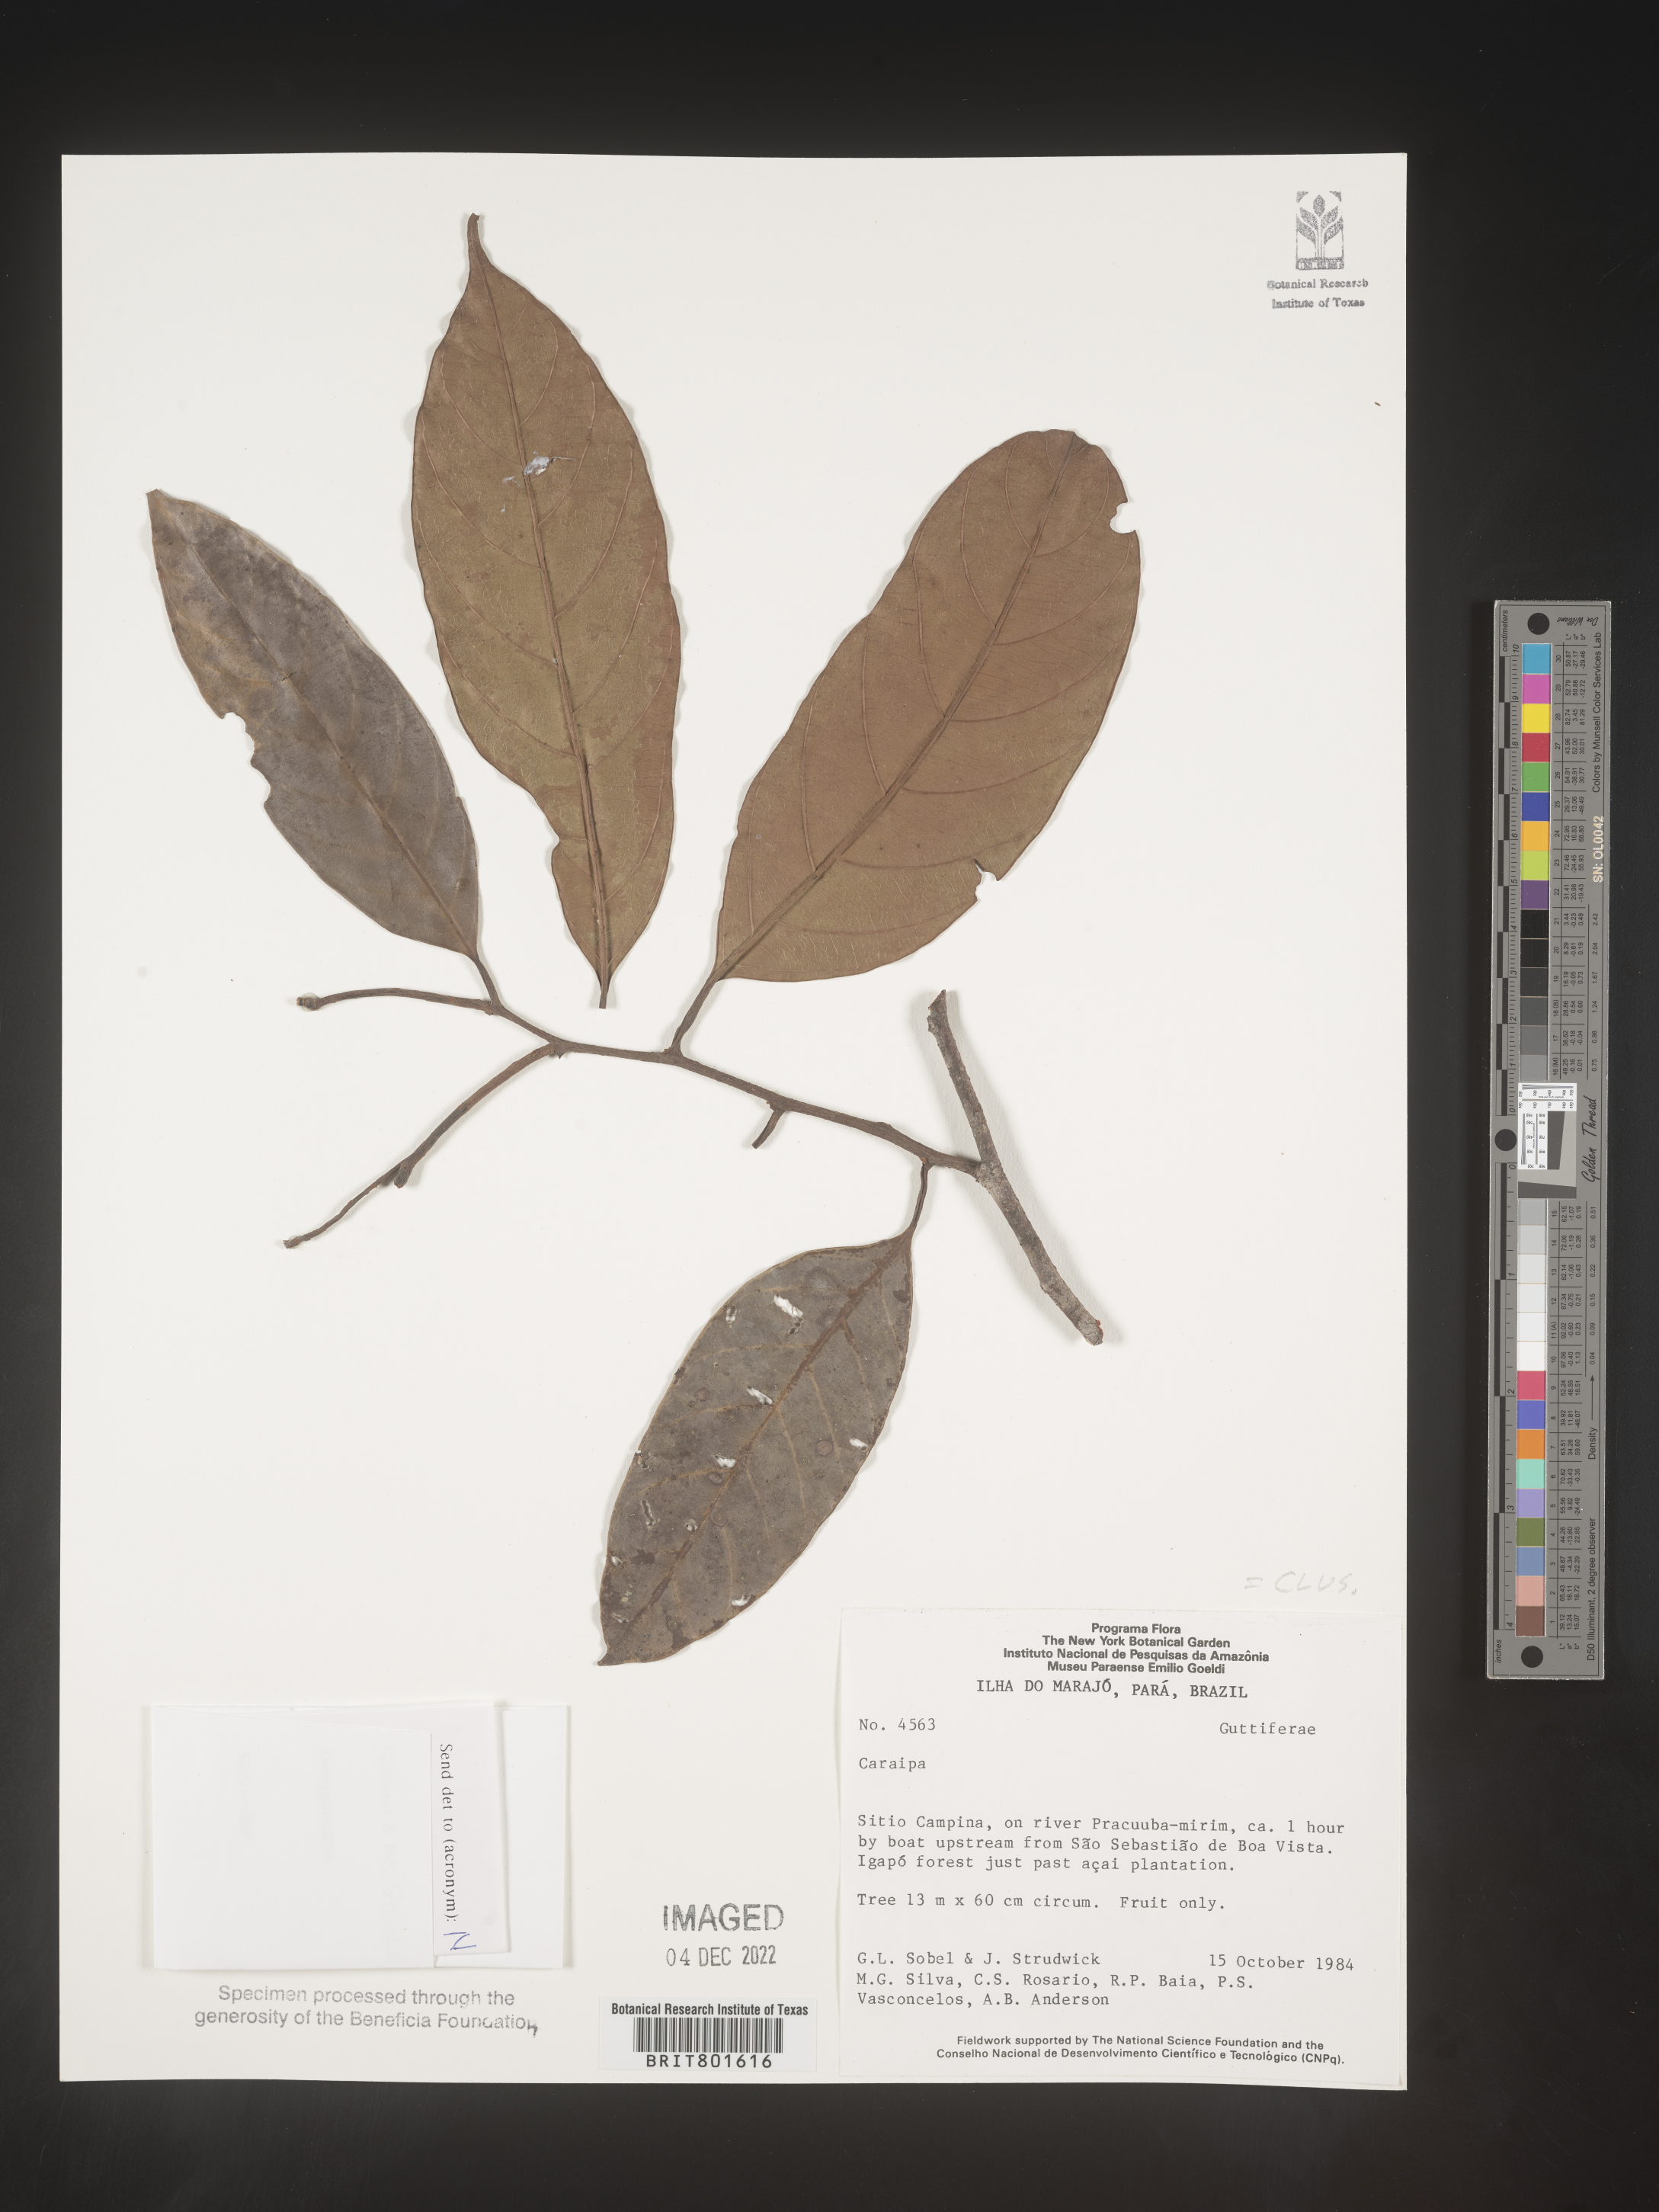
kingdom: Plantae
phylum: Tracheophyta
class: Magnoliopsida
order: Malpighiales
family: Calophyllaceae
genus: Caraipa
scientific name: Caraipa
